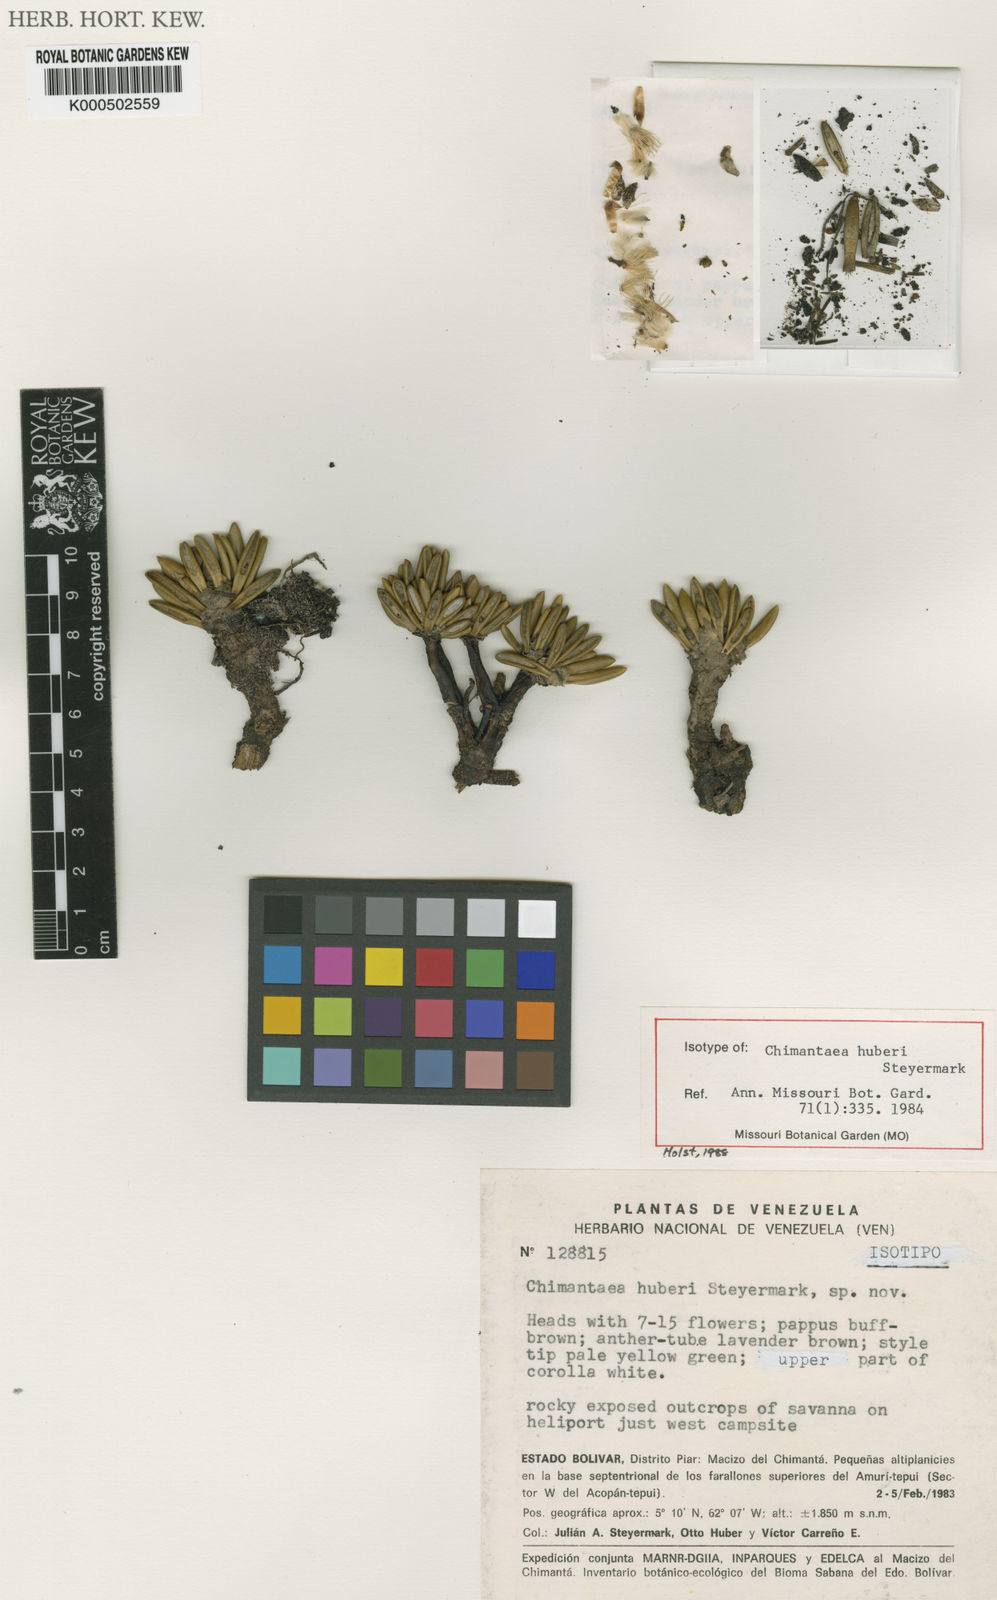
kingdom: Plantae
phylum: Tracheophyta
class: Magnoliopsida
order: Asterales
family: Asteraceae
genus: Chimantaea
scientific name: Chimantaea huberi
